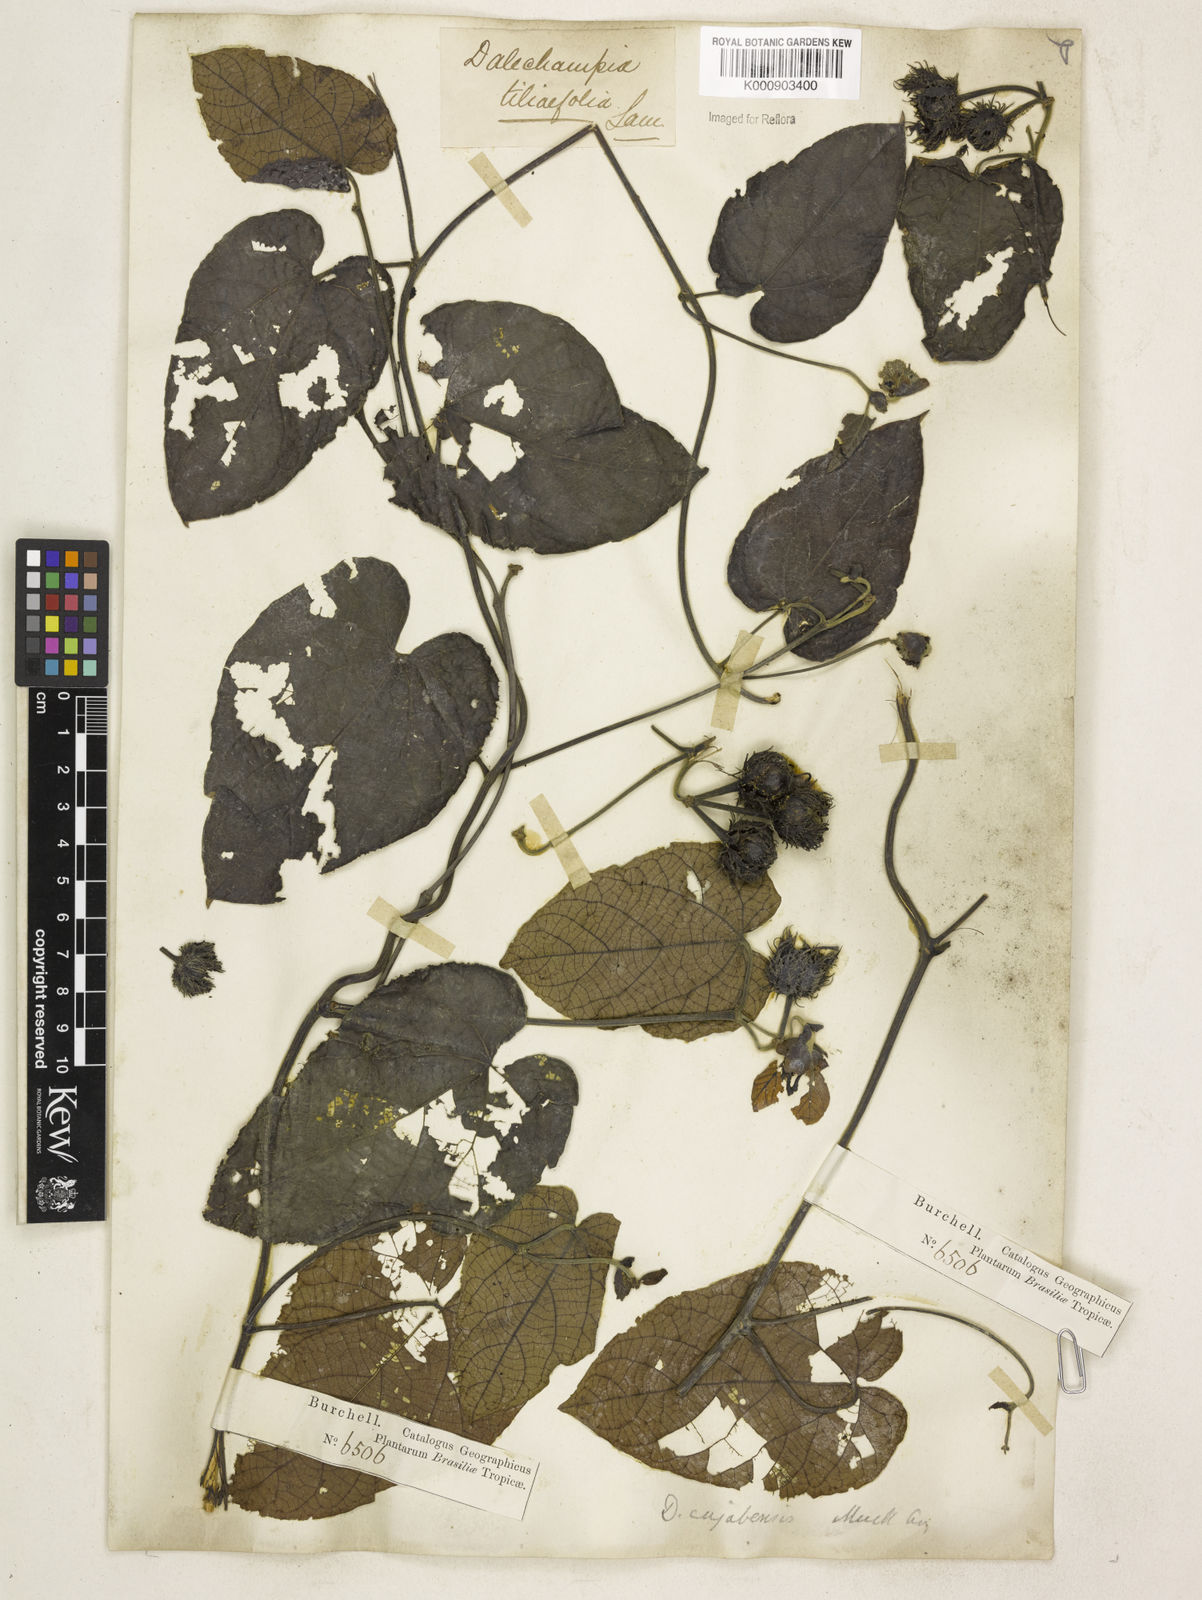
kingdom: Plantae
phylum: Tracheophyta
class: Magnoliopsida
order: Malpighiales
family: Euphorbiaceae
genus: Dalechampia
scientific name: Dalechampia
